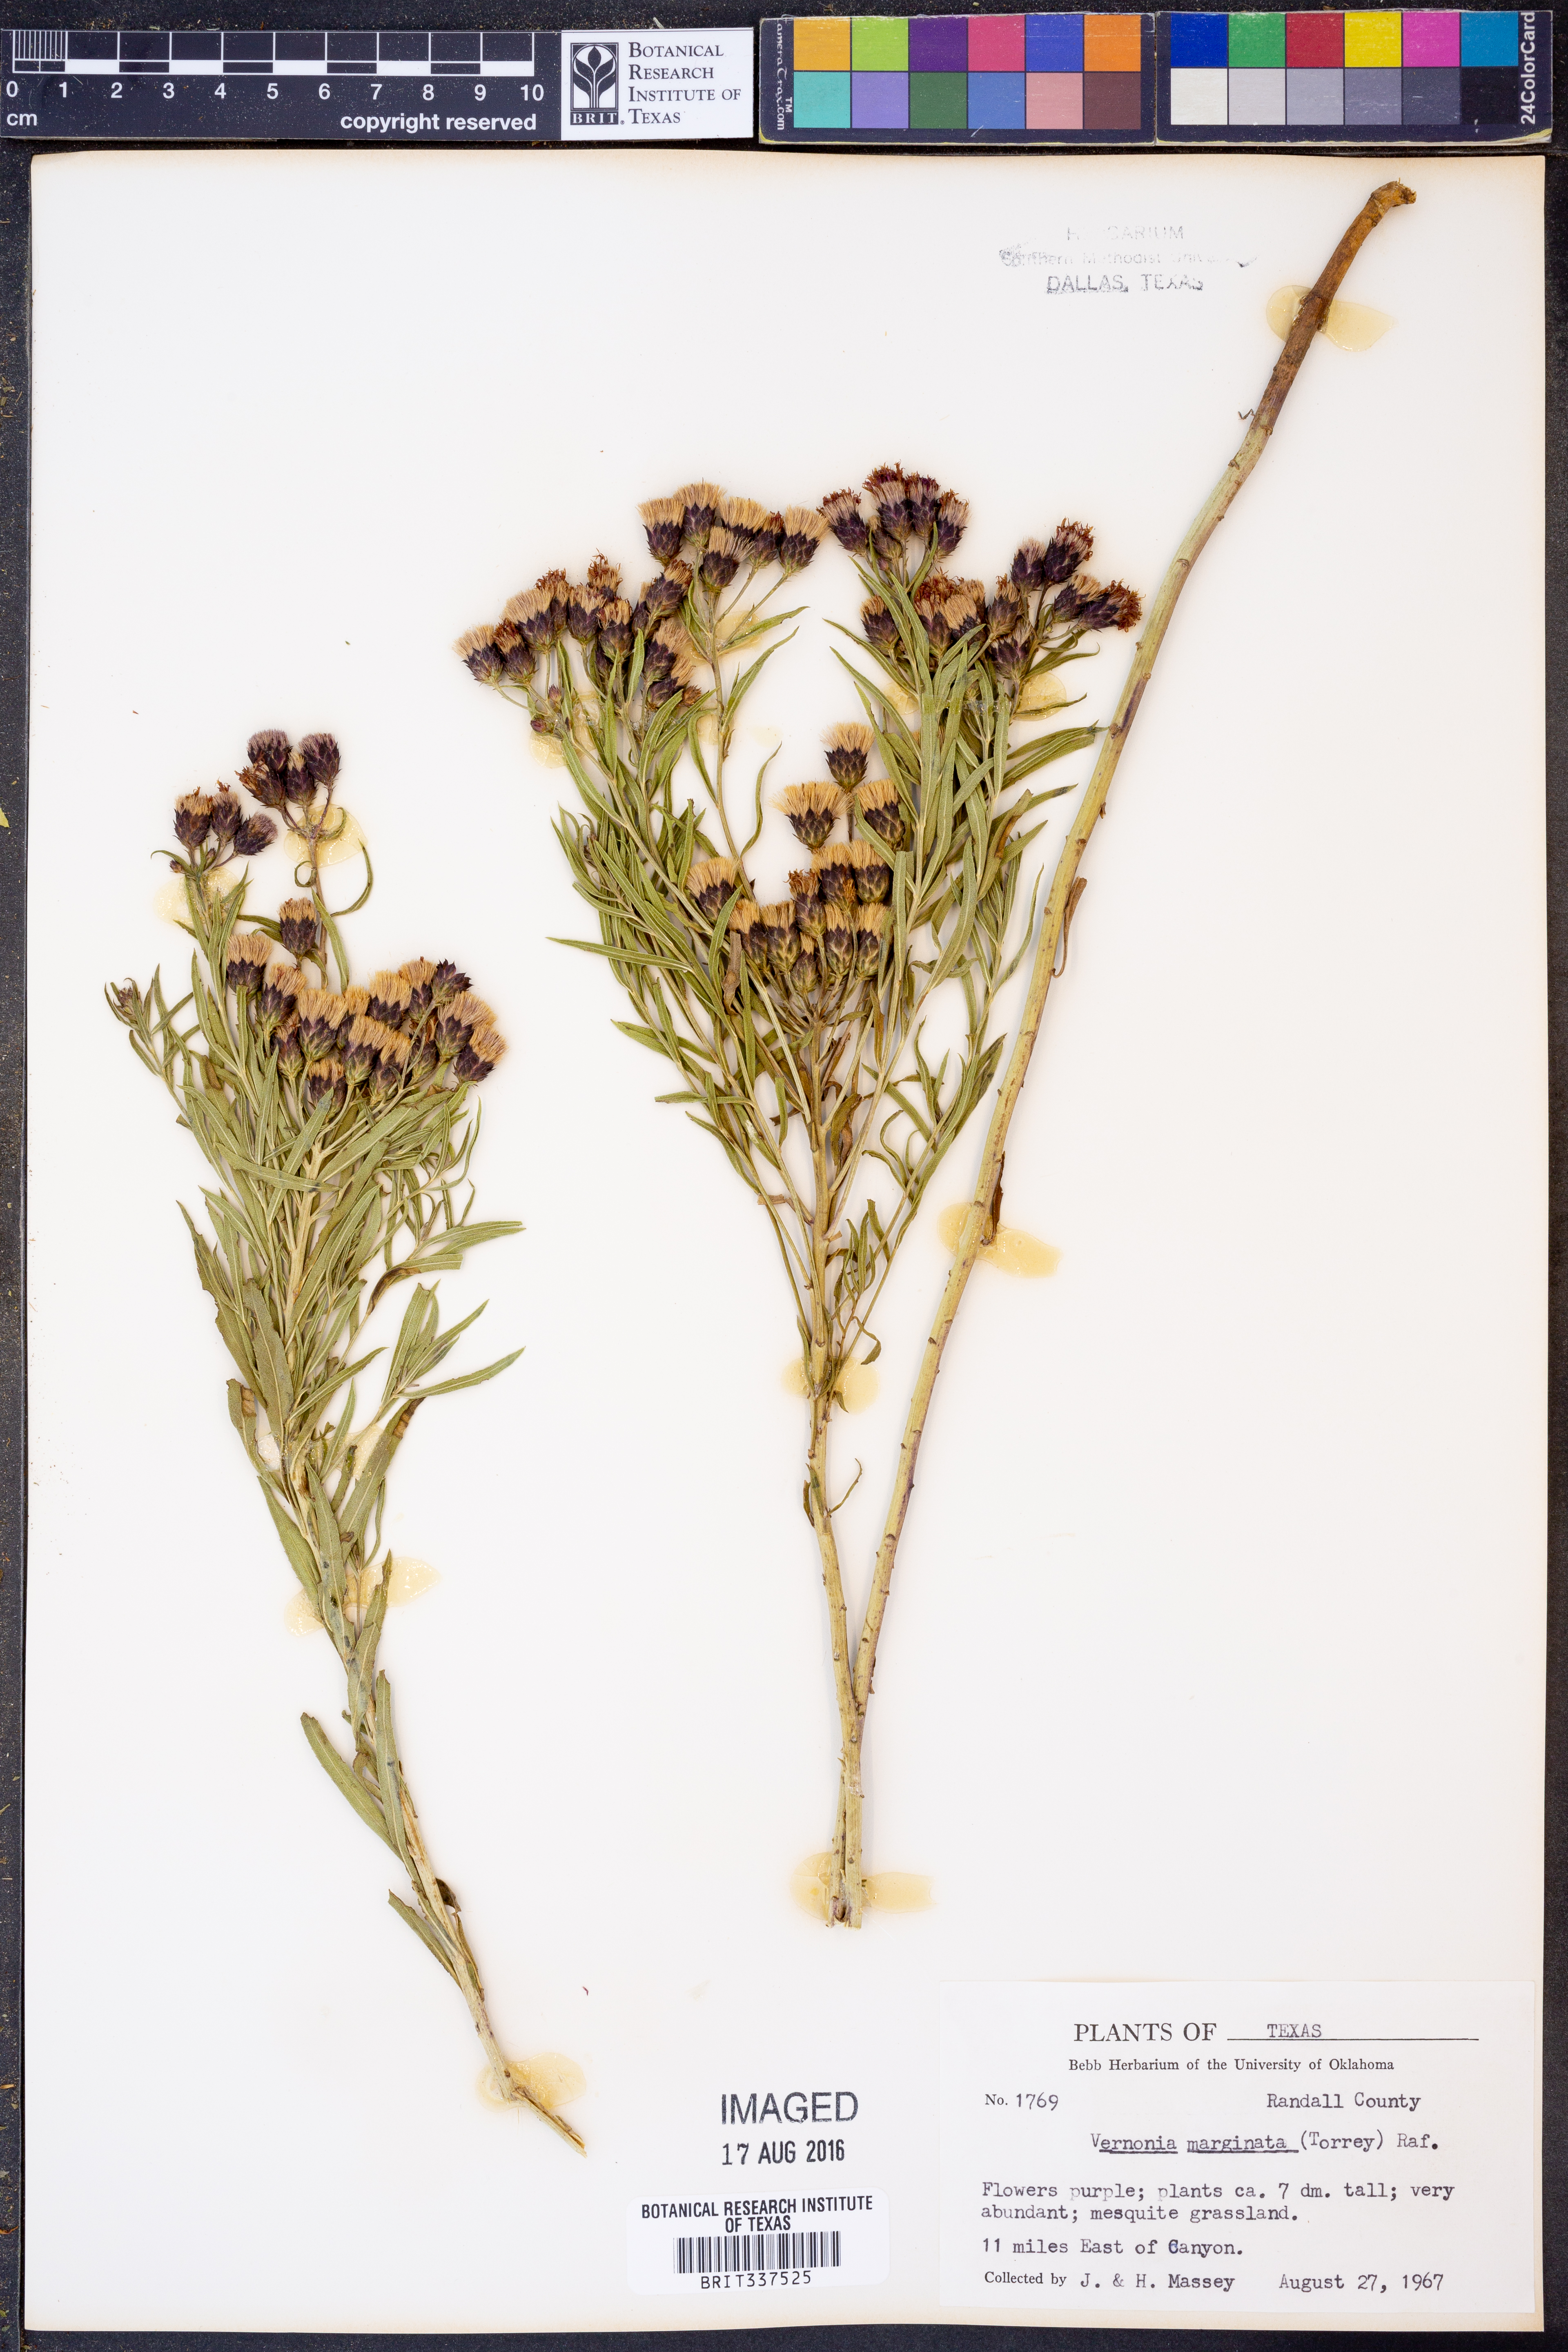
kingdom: Plantae
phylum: Tracheophyta
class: Magnoliopsida
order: Asterales
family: Asteraceae
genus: Vernonia
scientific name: Vernonia marginata
